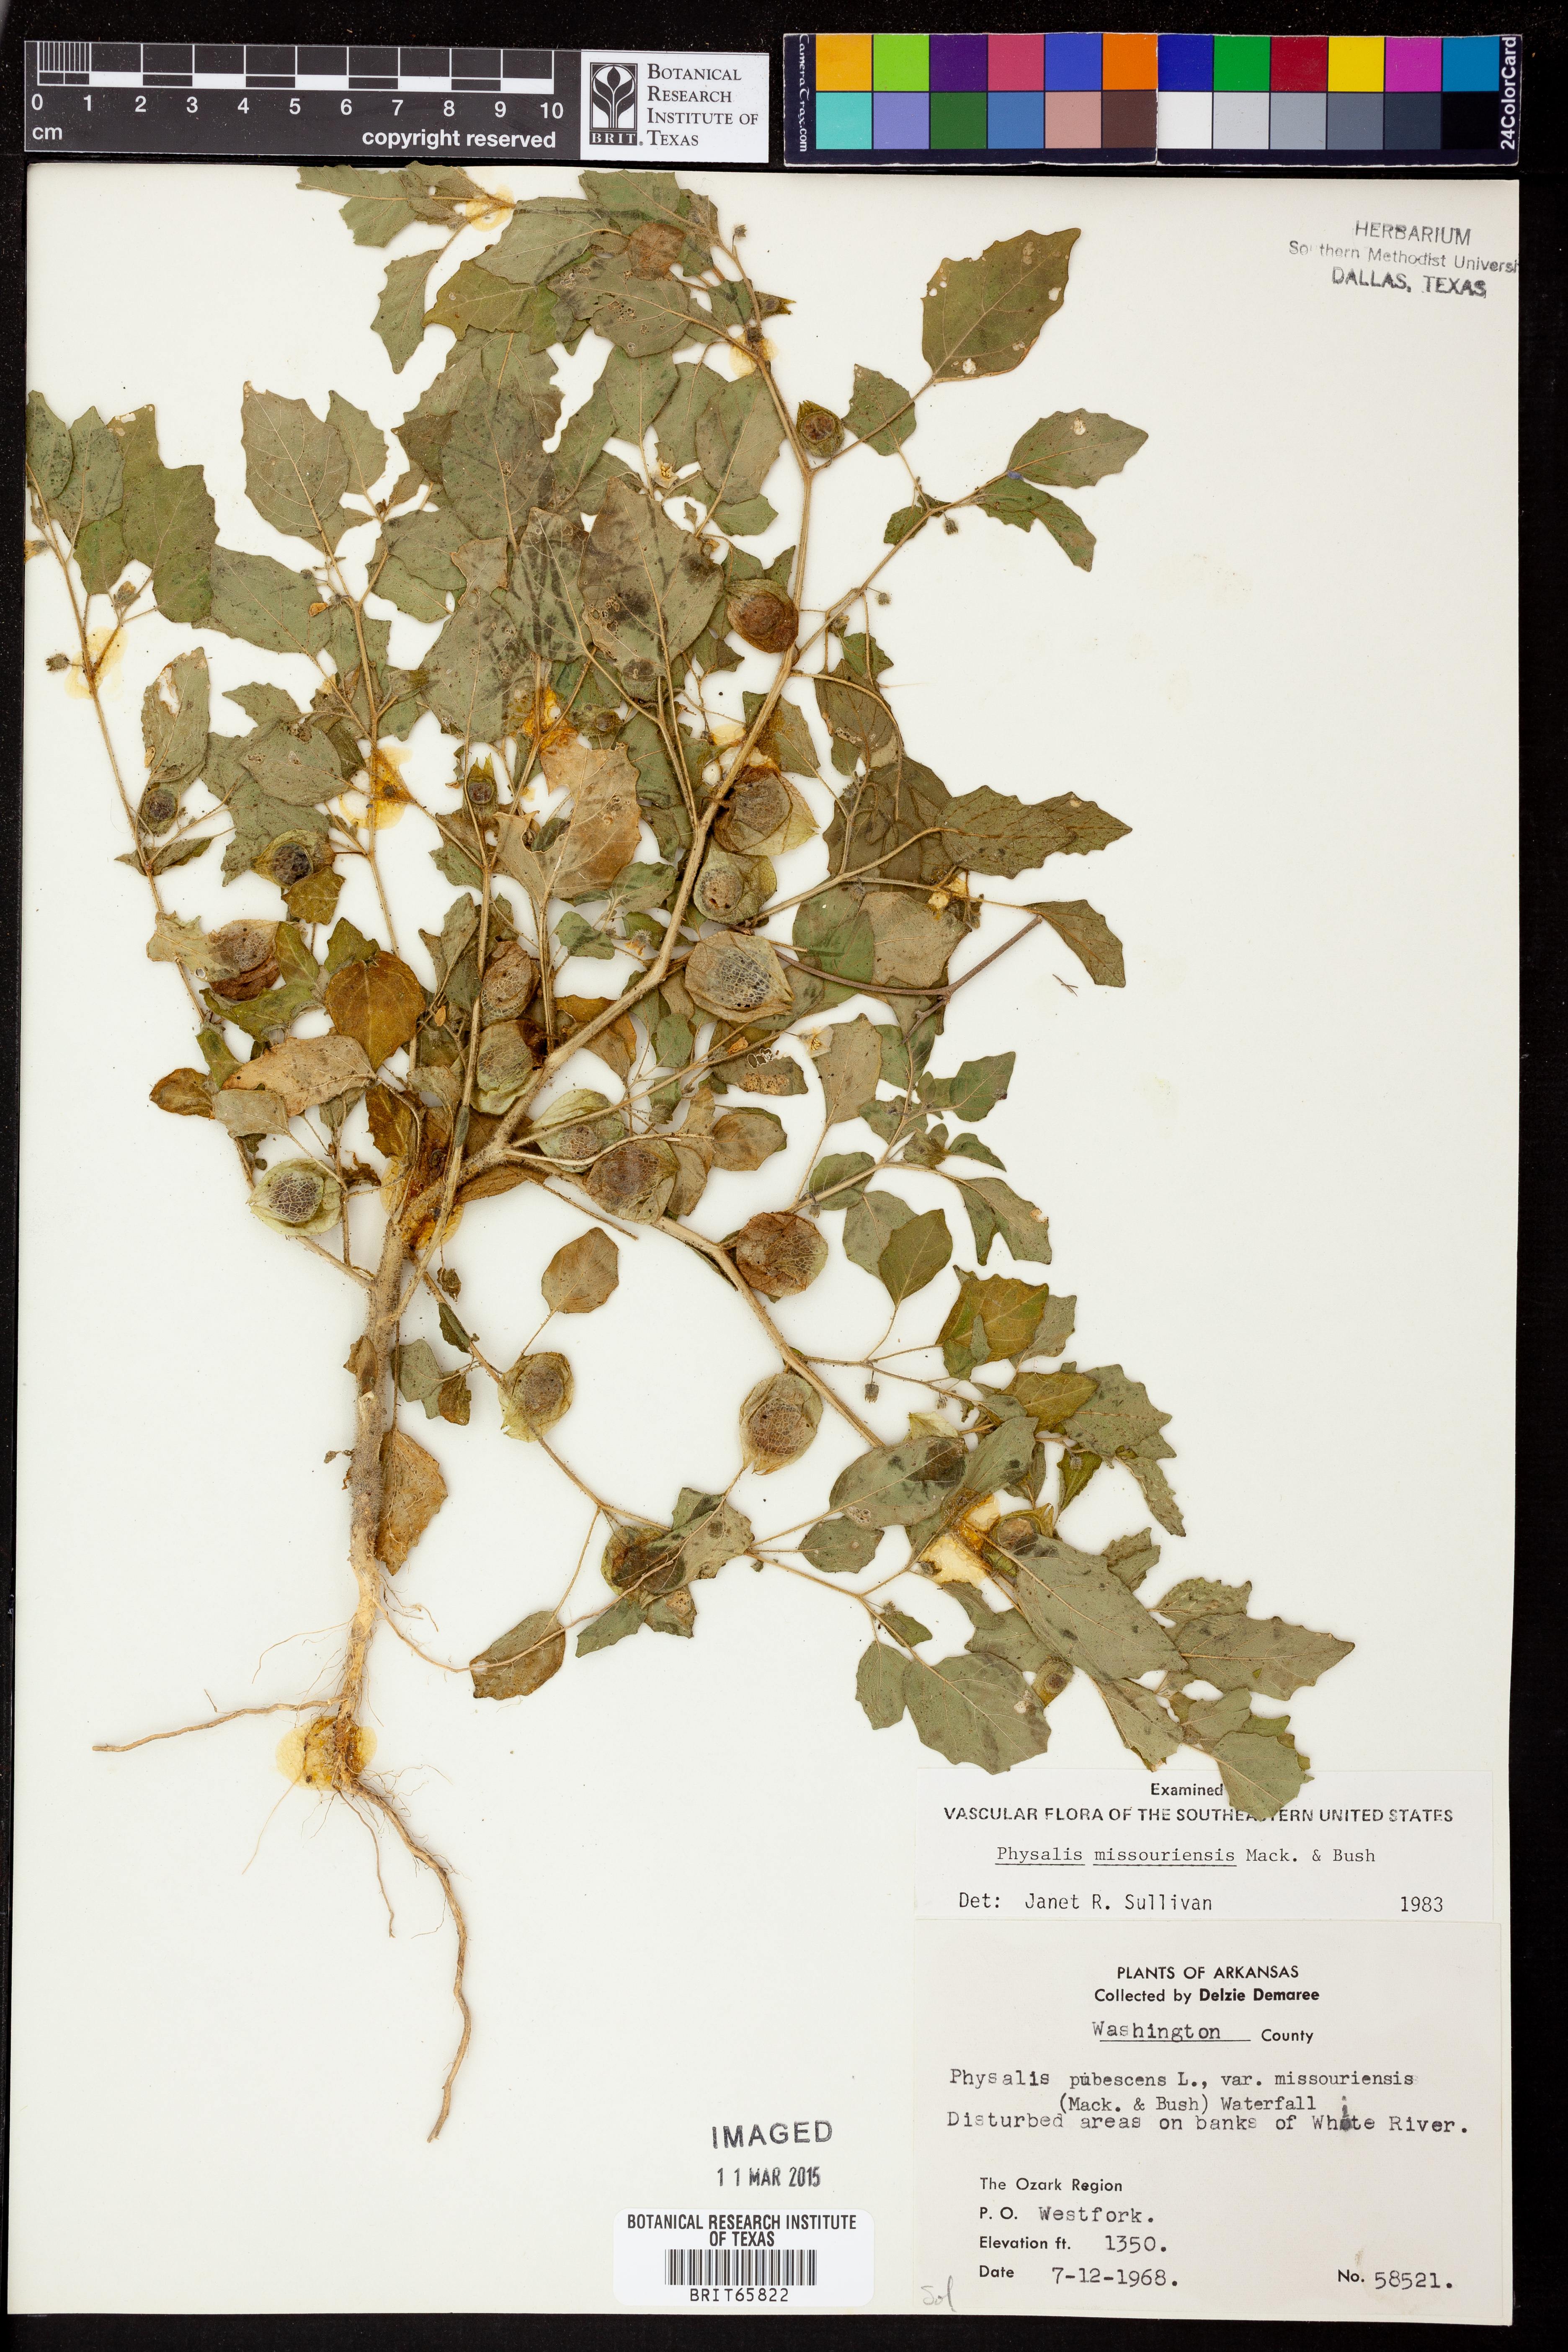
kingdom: Plantae
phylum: Tracheophyta
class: Magnoliopsida
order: Solanales
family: Solanaceae
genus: Physalis
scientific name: Physalis missouriensis
